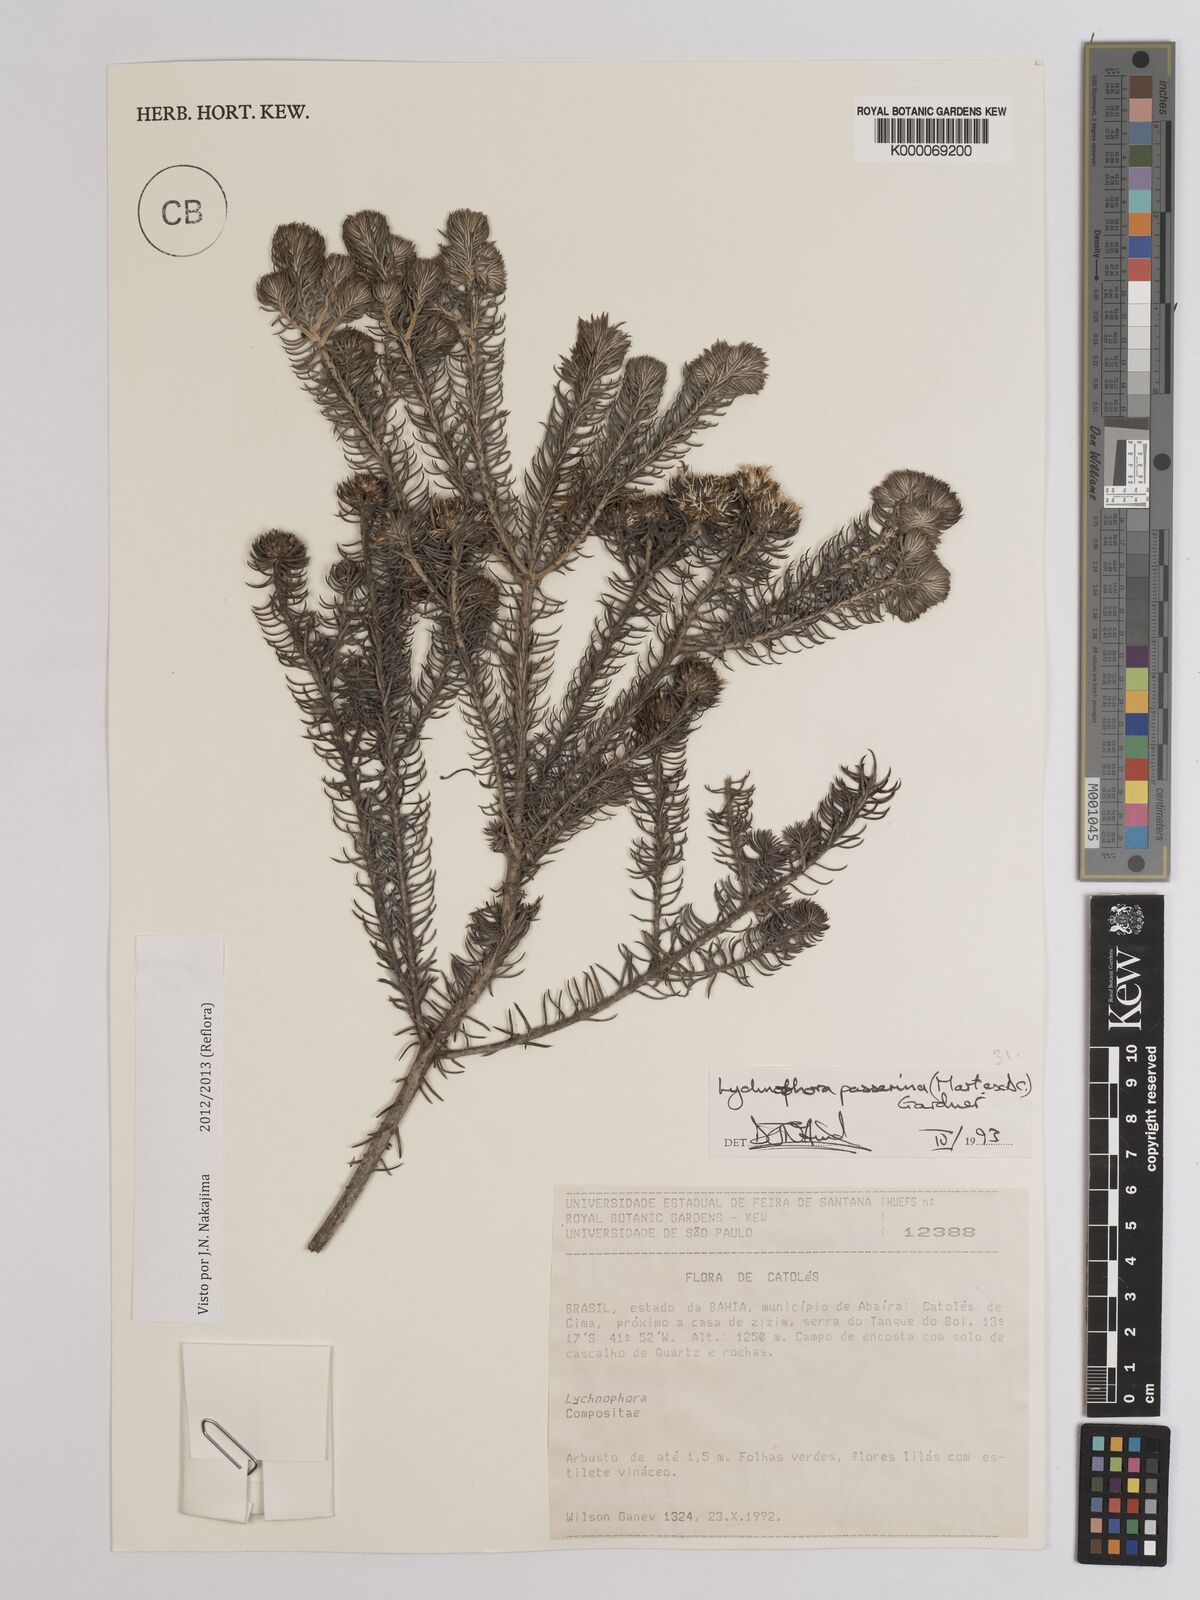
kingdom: Plantae
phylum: Tracheophyta
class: Magnoliopsida
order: Asterales
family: Asteraceae
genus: Lychnophora
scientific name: Lychnophora passerina
